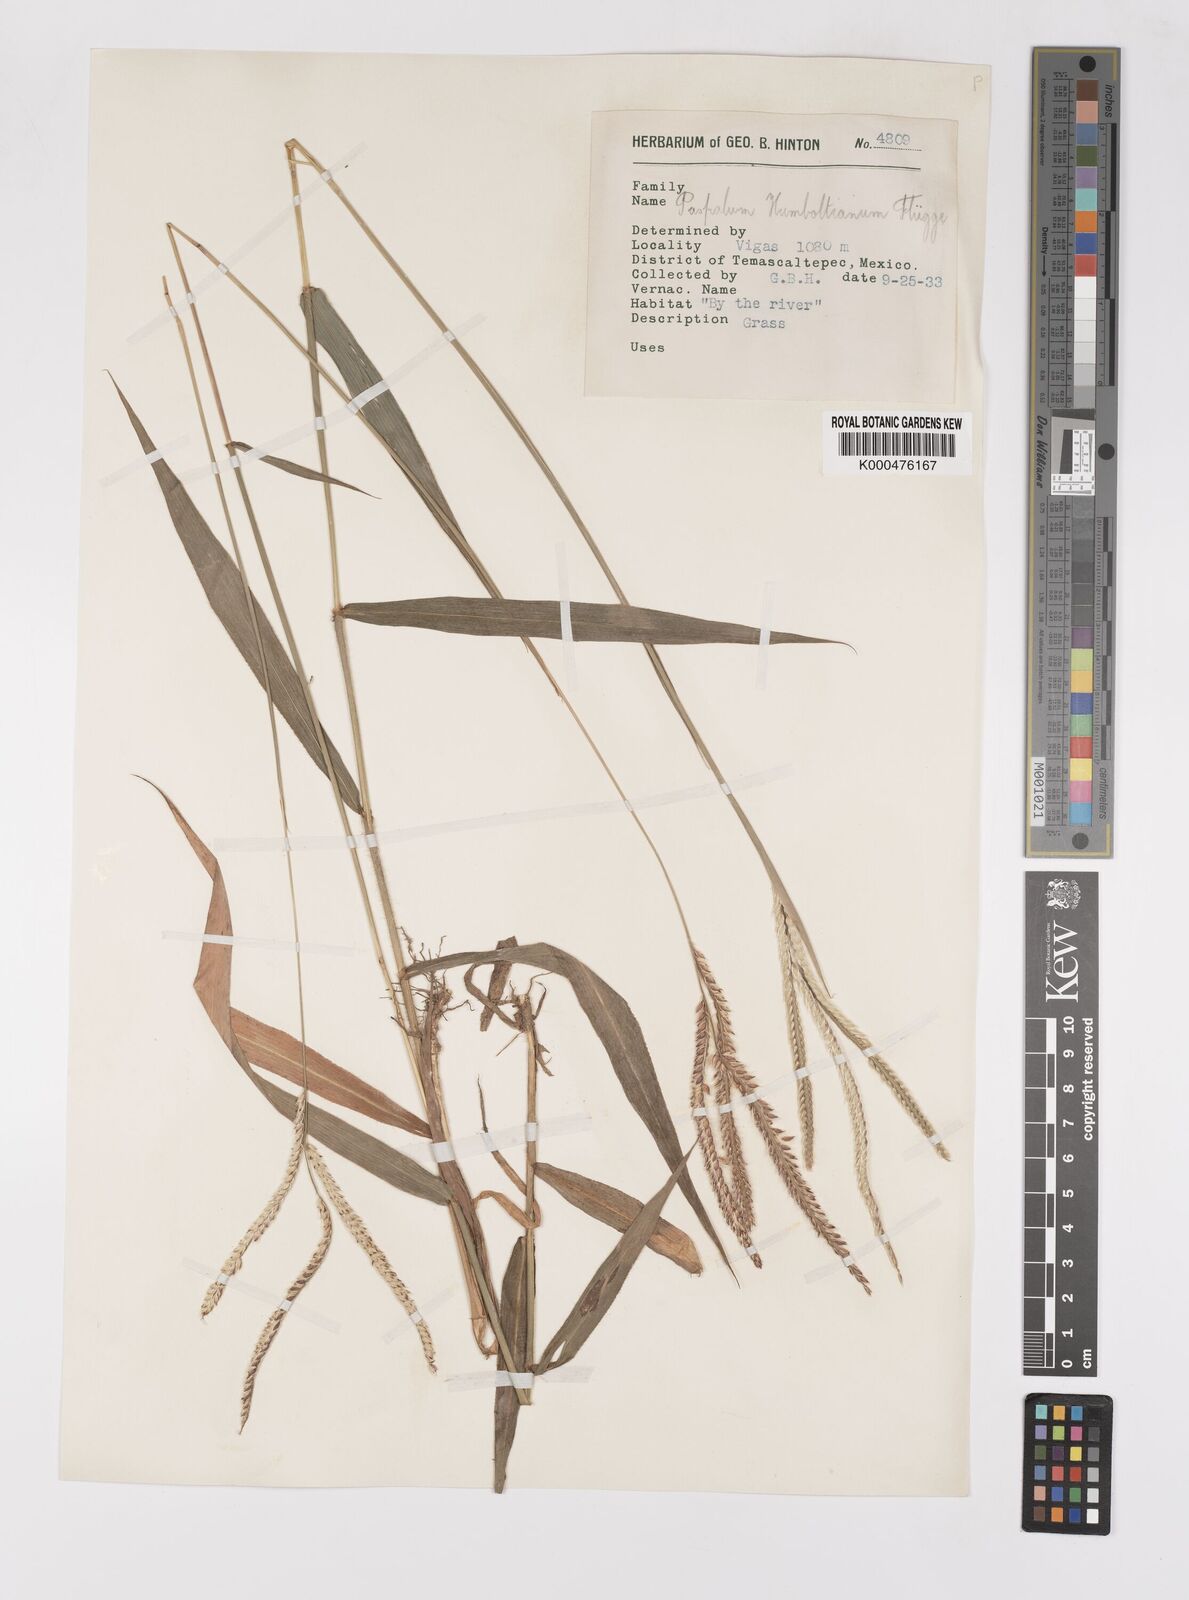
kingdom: Plantae
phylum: Tracheophyta
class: Liliopsida
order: Poales
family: Poaceae
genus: Paspalum
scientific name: Paspalum
